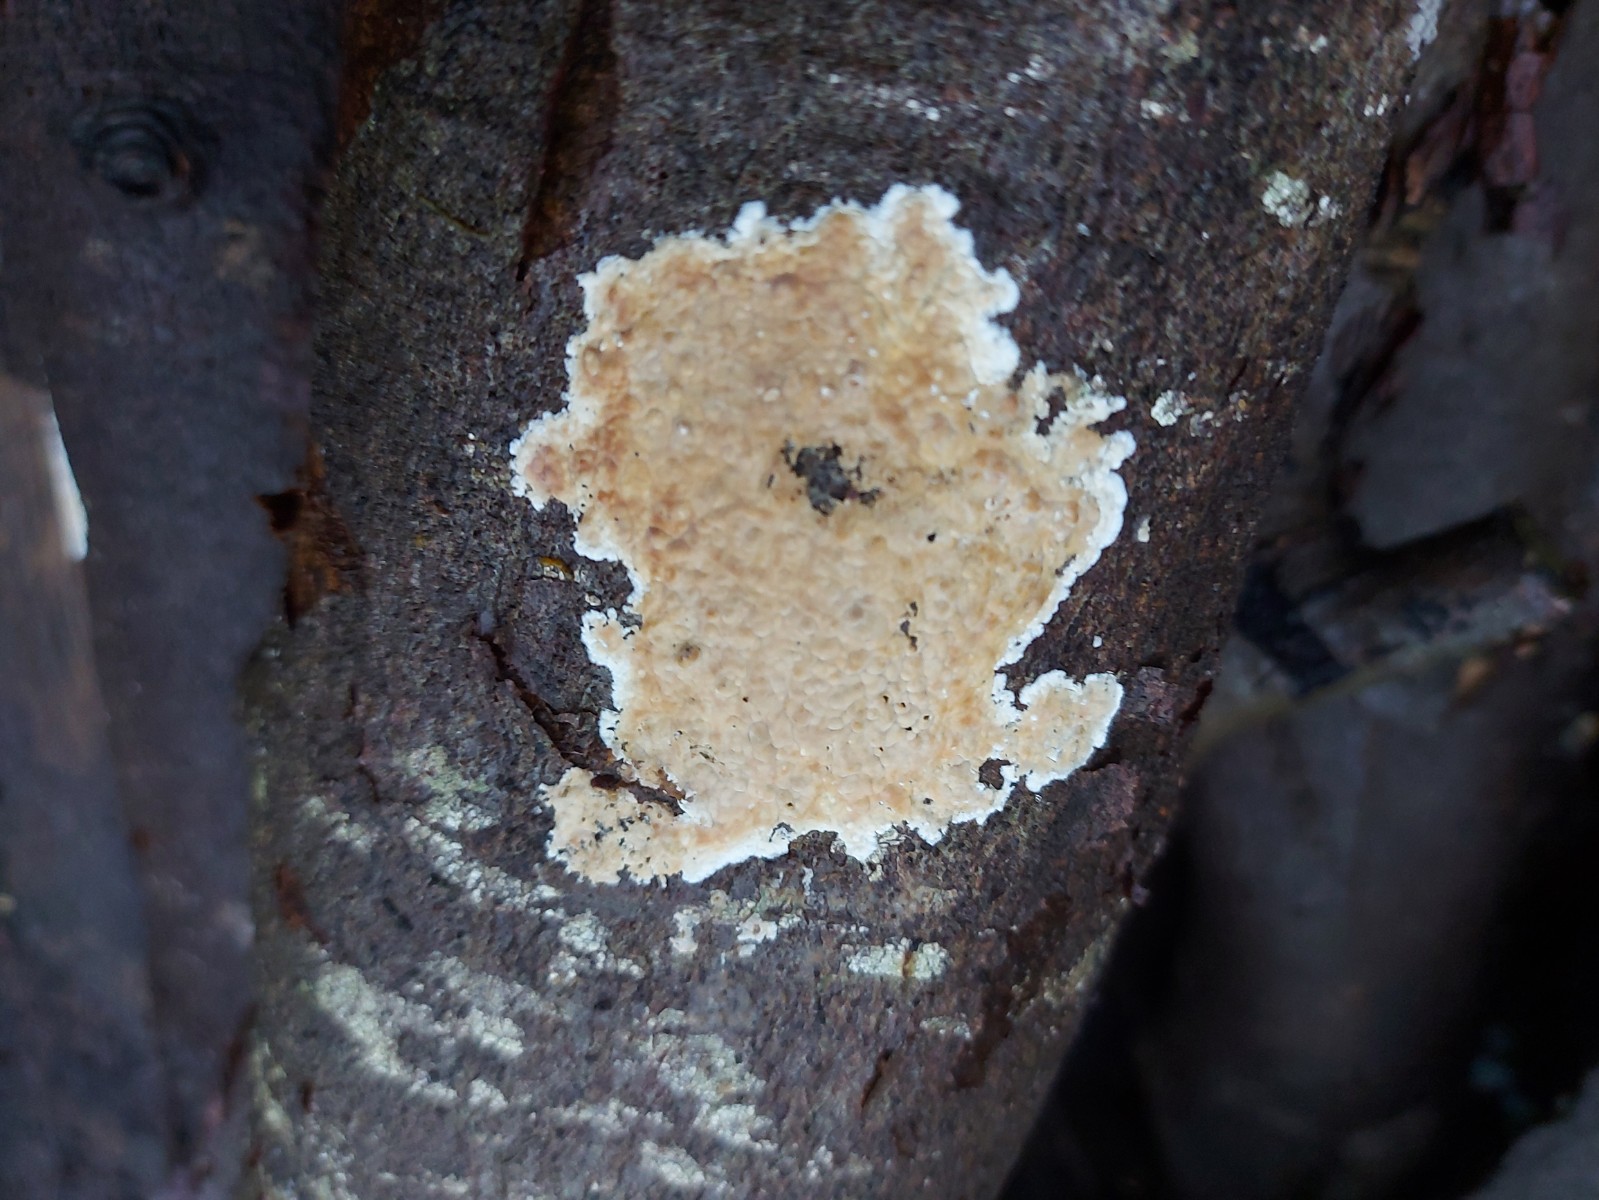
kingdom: Fungi
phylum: Basidiomycota
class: Agaricomycetes
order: Agaricales
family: Physalacriaceae
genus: Cylindrobasidium
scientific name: Cylindrobasidium evolvens
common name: sprækkehinde
